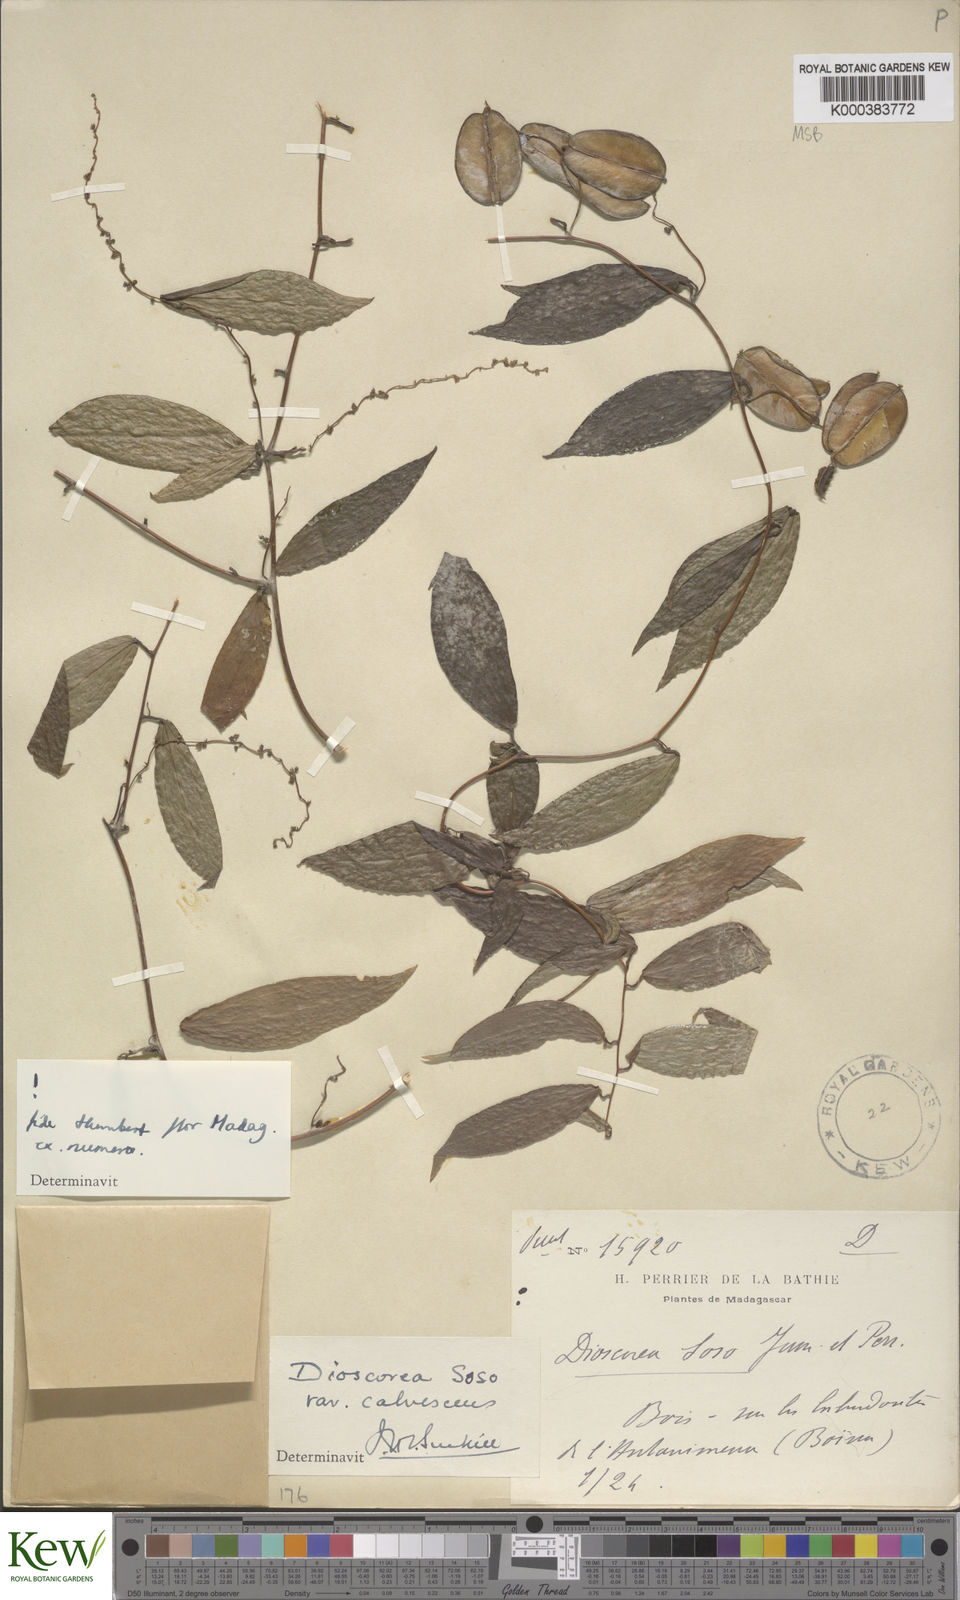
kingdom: Plantae
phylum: Tracheophyta
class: Liliopsida
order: Dioscoreales
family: Dioscoreaceae
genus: Dioscorea
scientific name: Dioscorea
